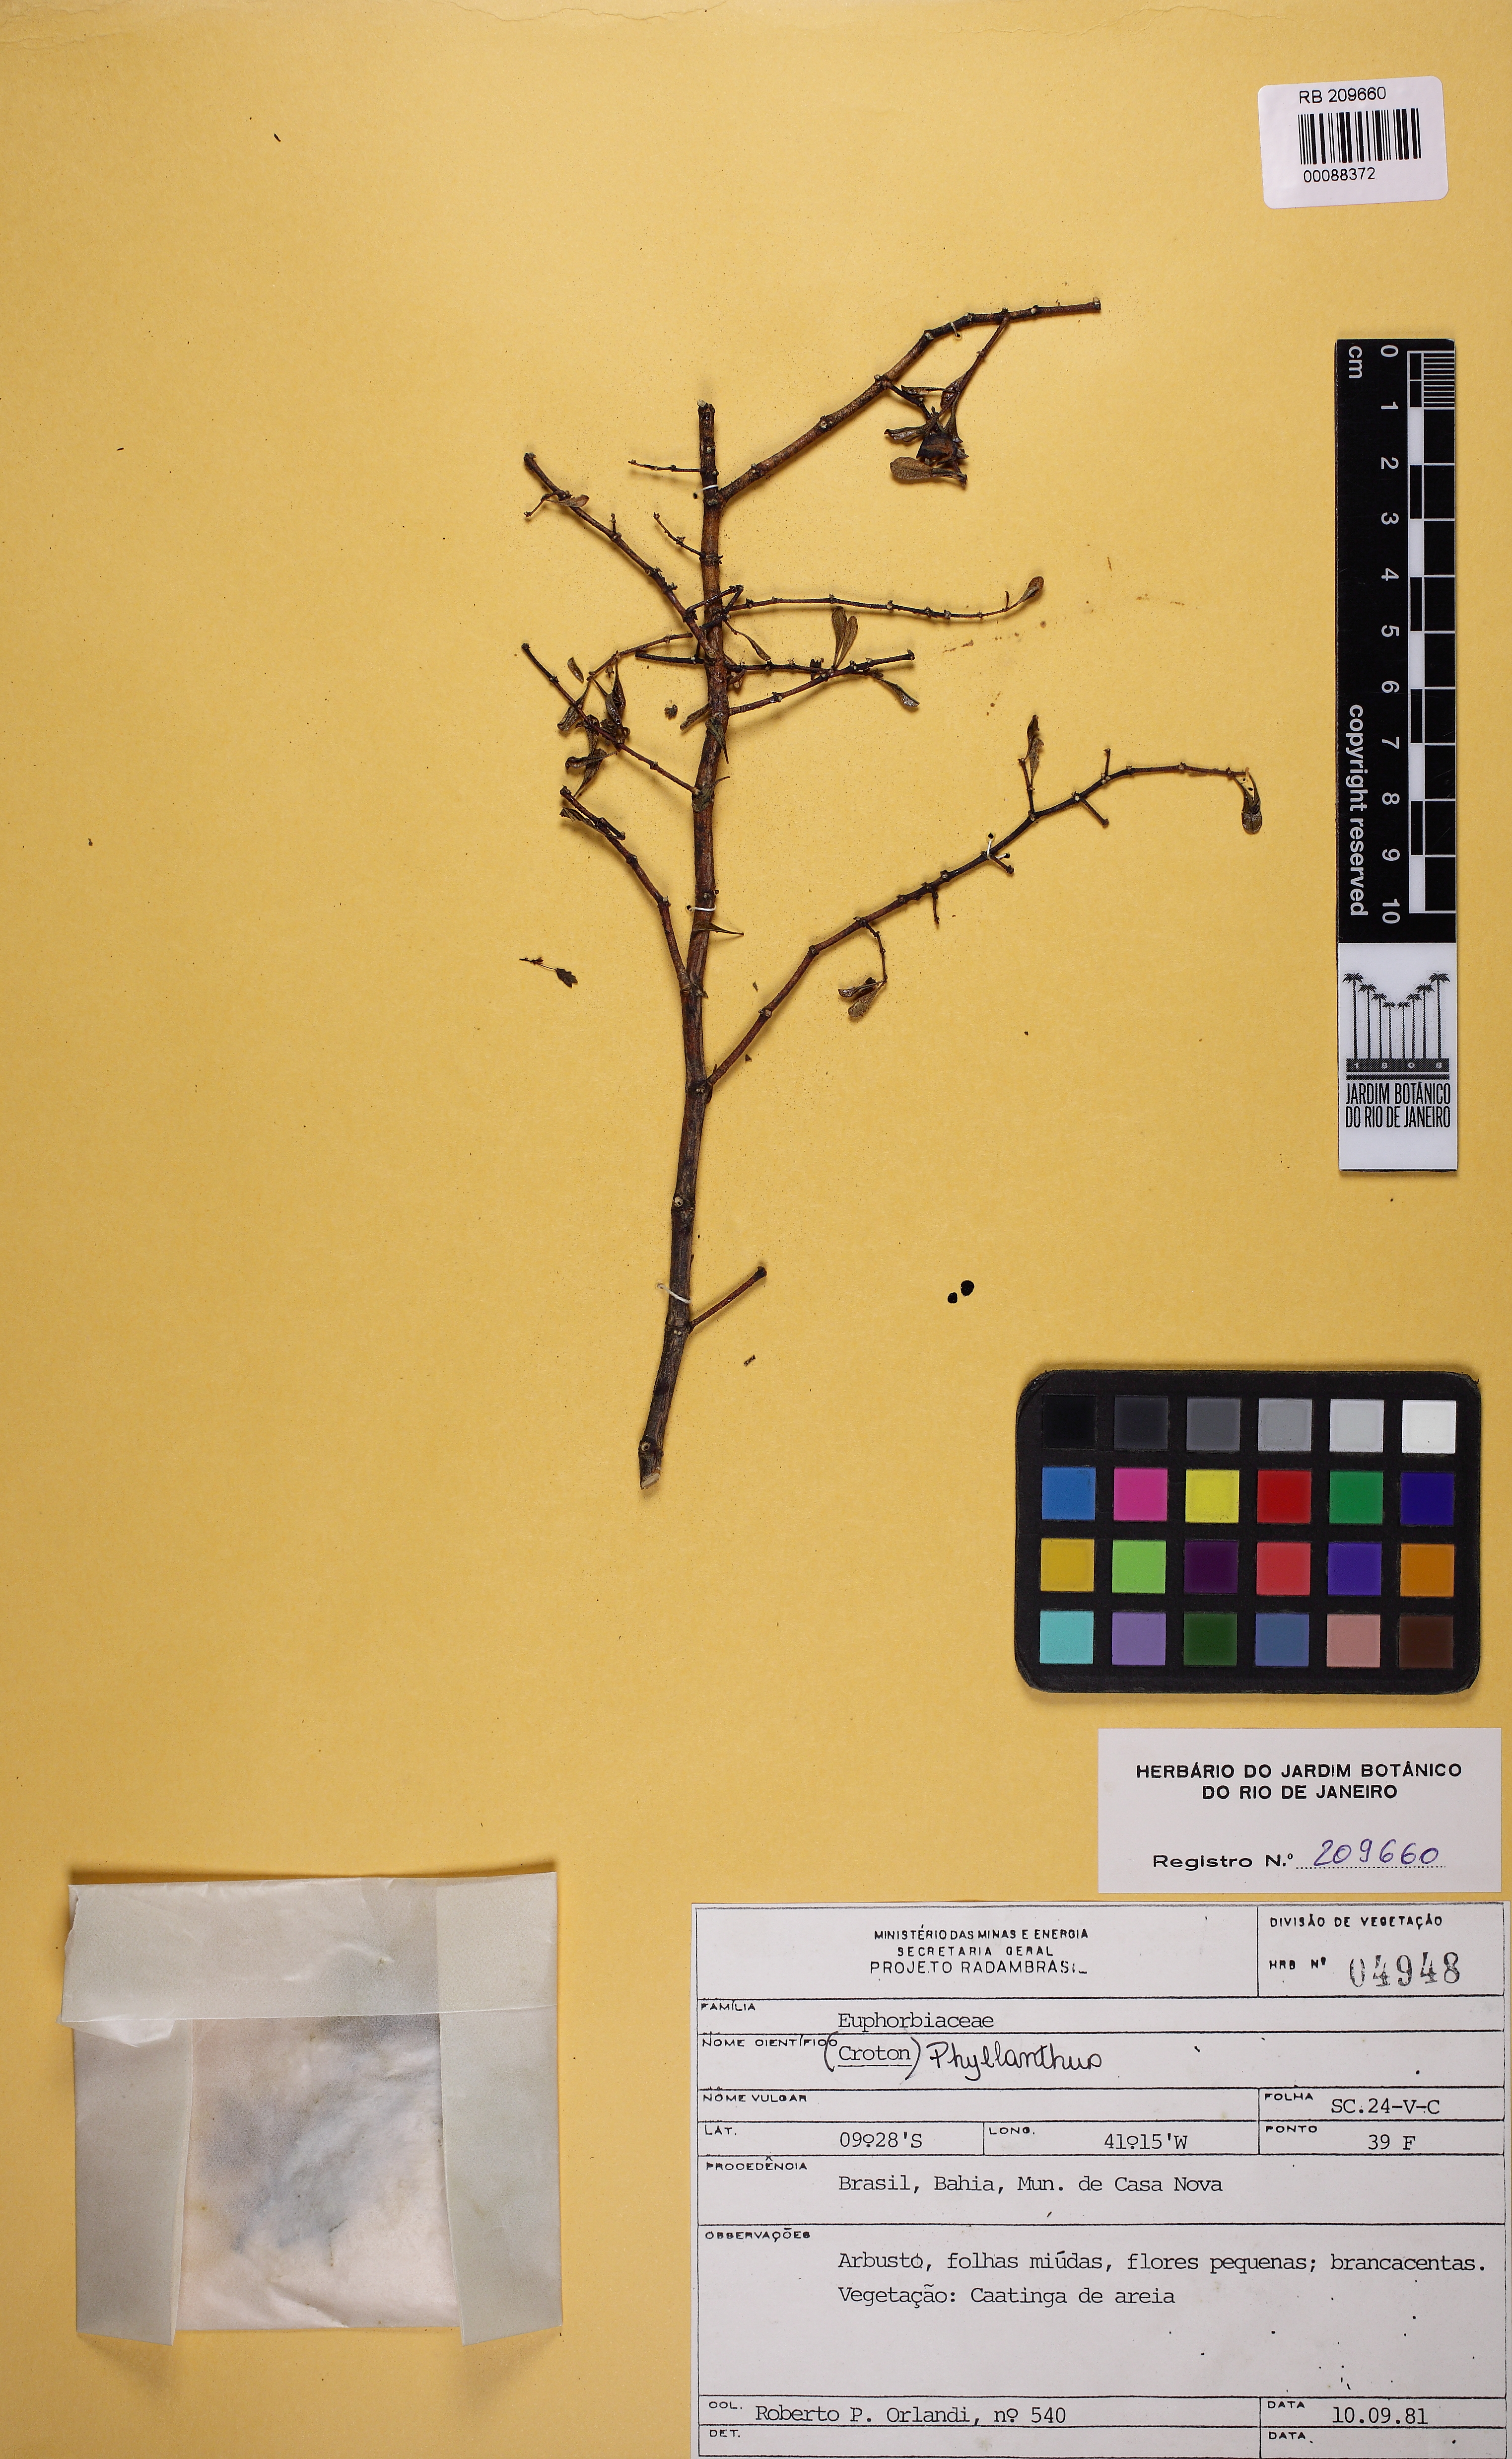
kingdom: Plantae
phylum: Tracheophyta
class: Magnoliopsida
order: Malpighiales
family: Phyllanthaceae
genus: Phyllanthus
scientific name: Phyllanthus
